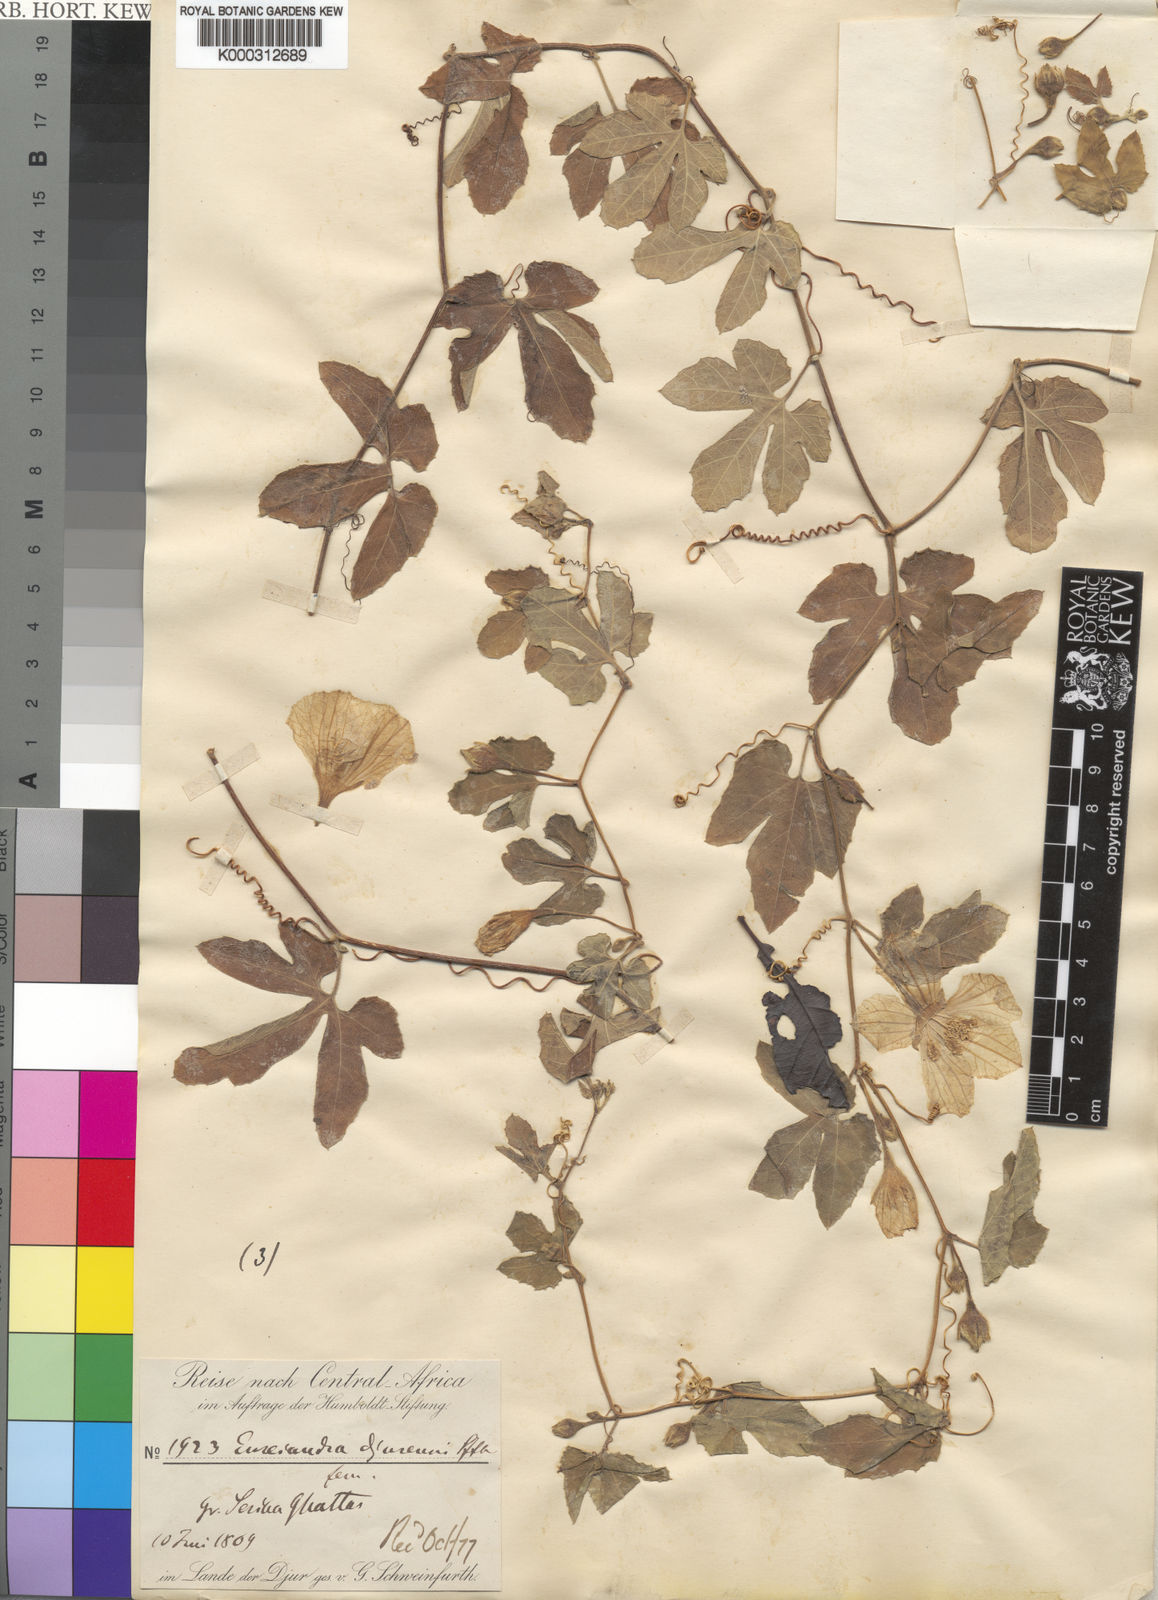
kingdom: Plantae
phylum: Tracheophyta
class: Magnoliopsida
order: Cucurbitales
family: Cucurbitaceae
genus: Eureiandra
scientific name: Eureiandra formosa
